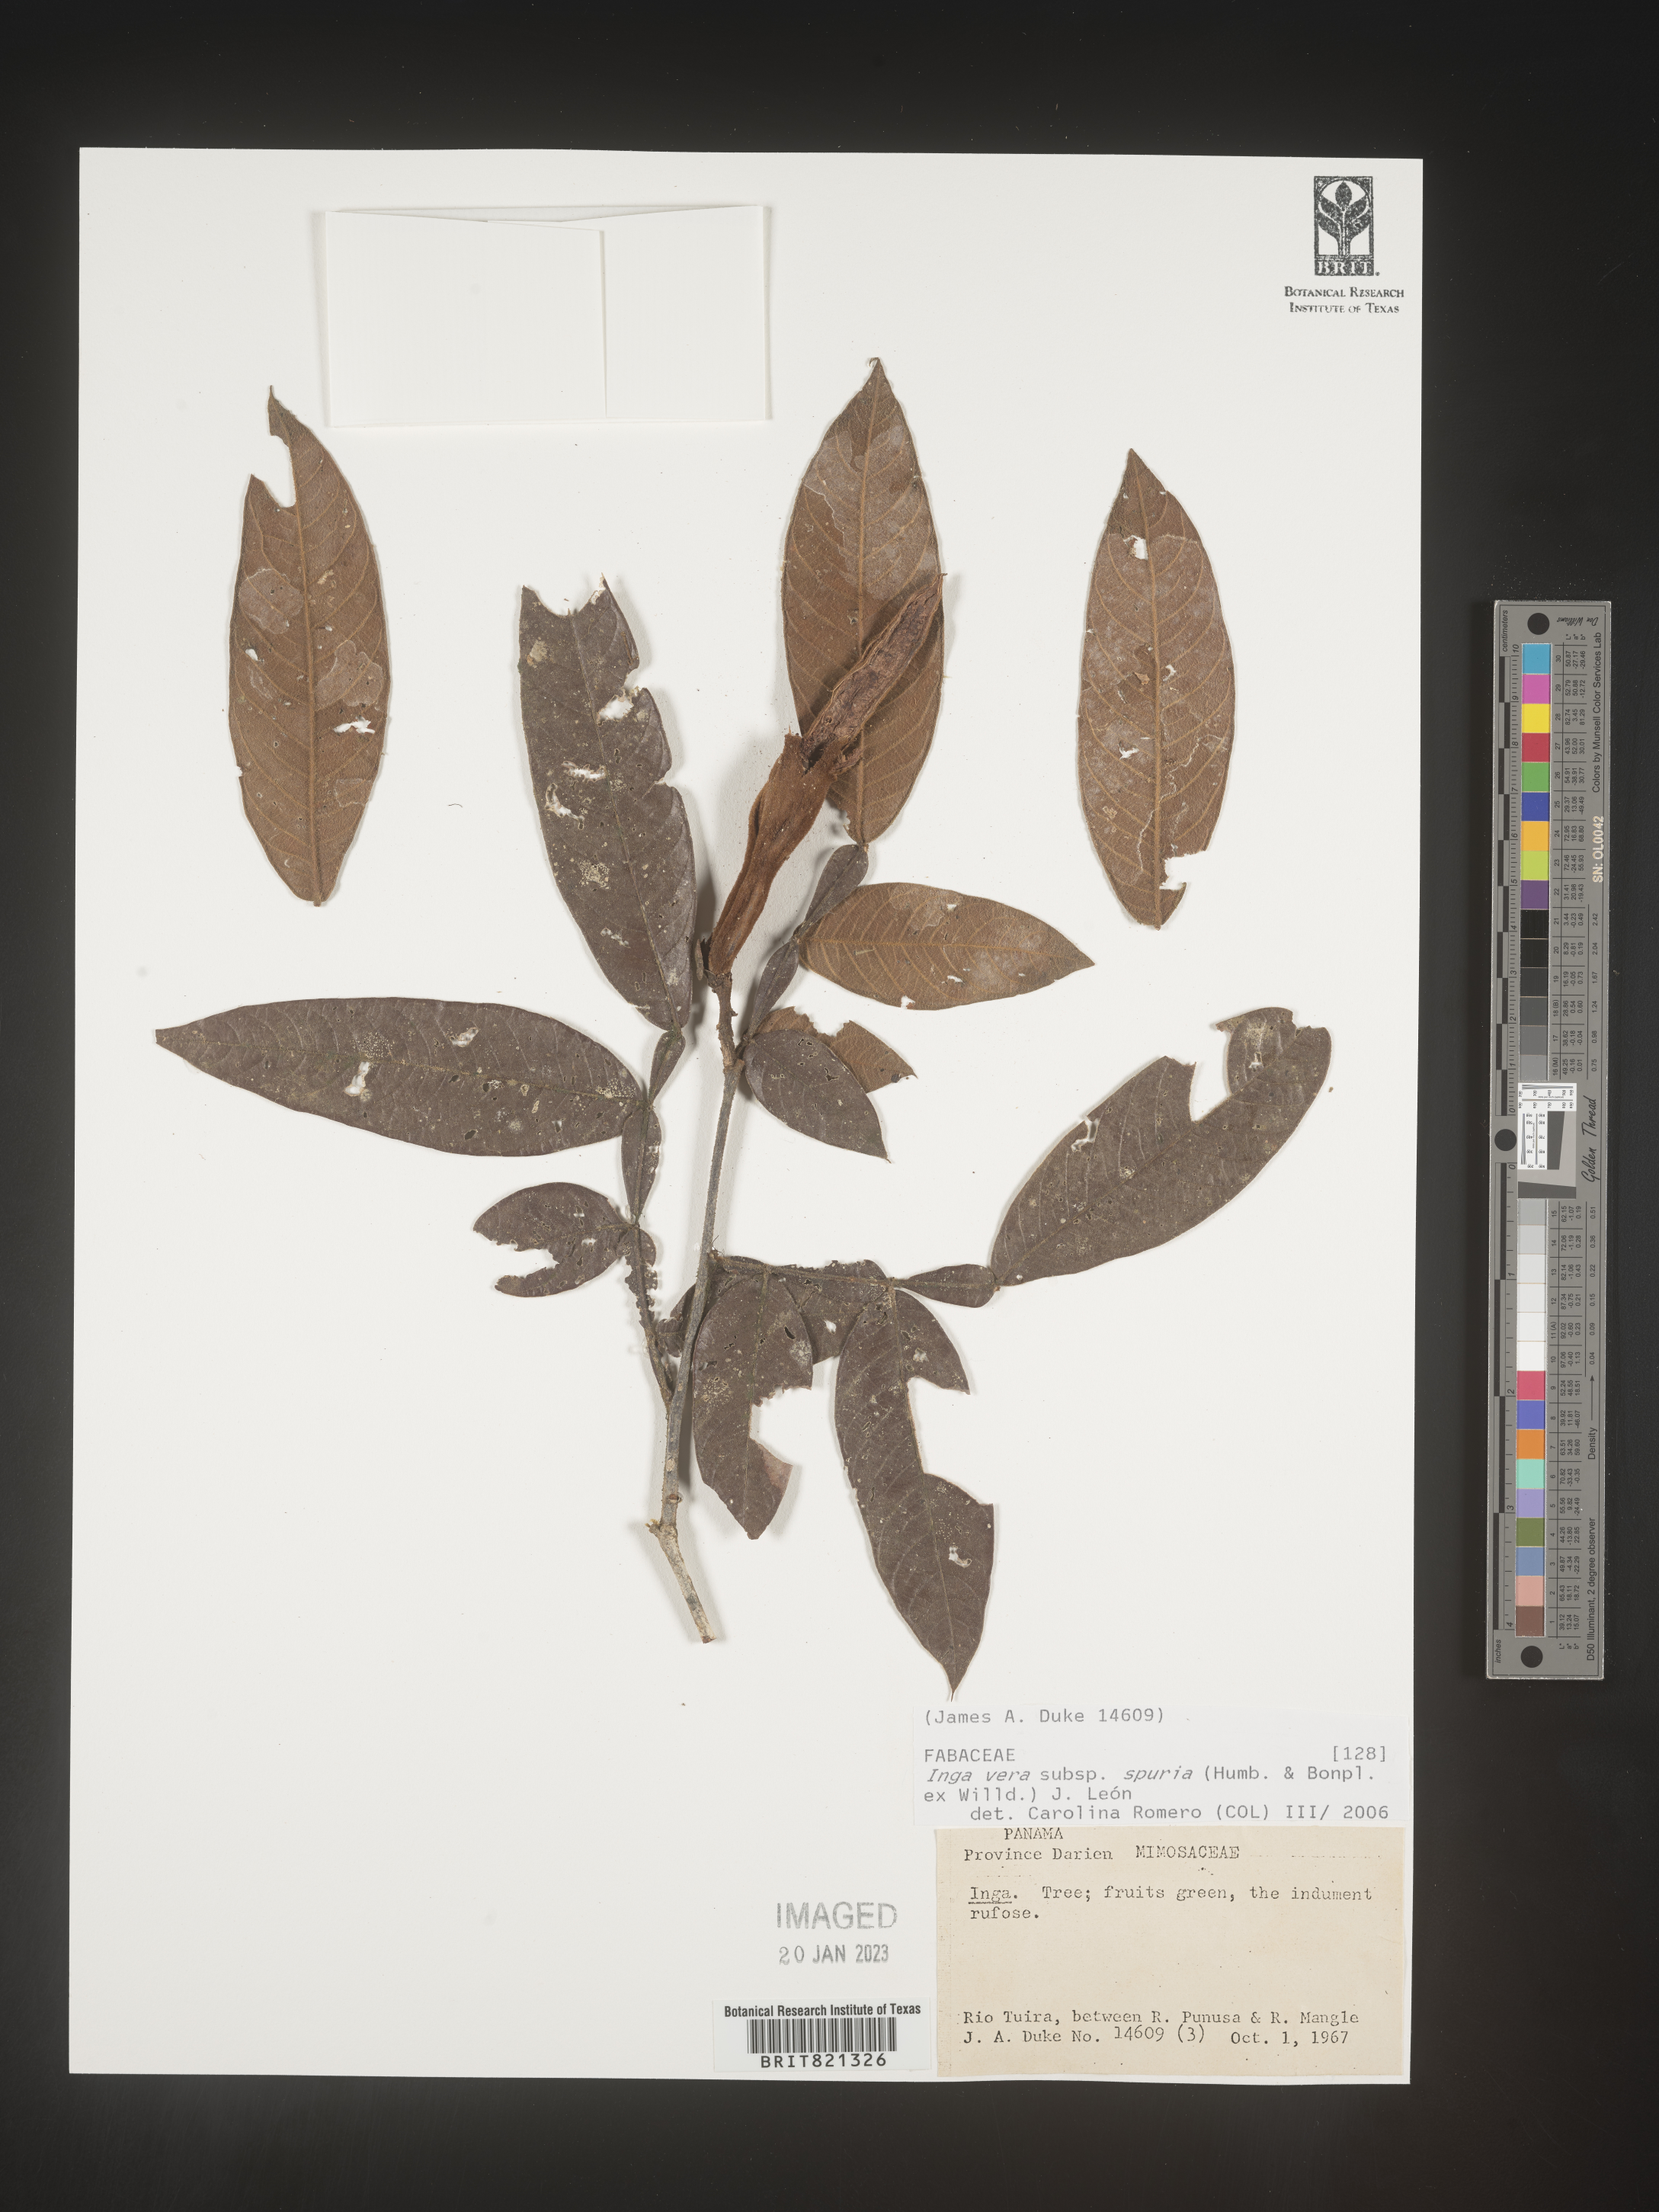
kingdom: Plantae
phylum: Tracheophyta
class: Magnoliopsida
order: Fabales
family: Fabaceae
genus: Inga
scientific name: Inga
